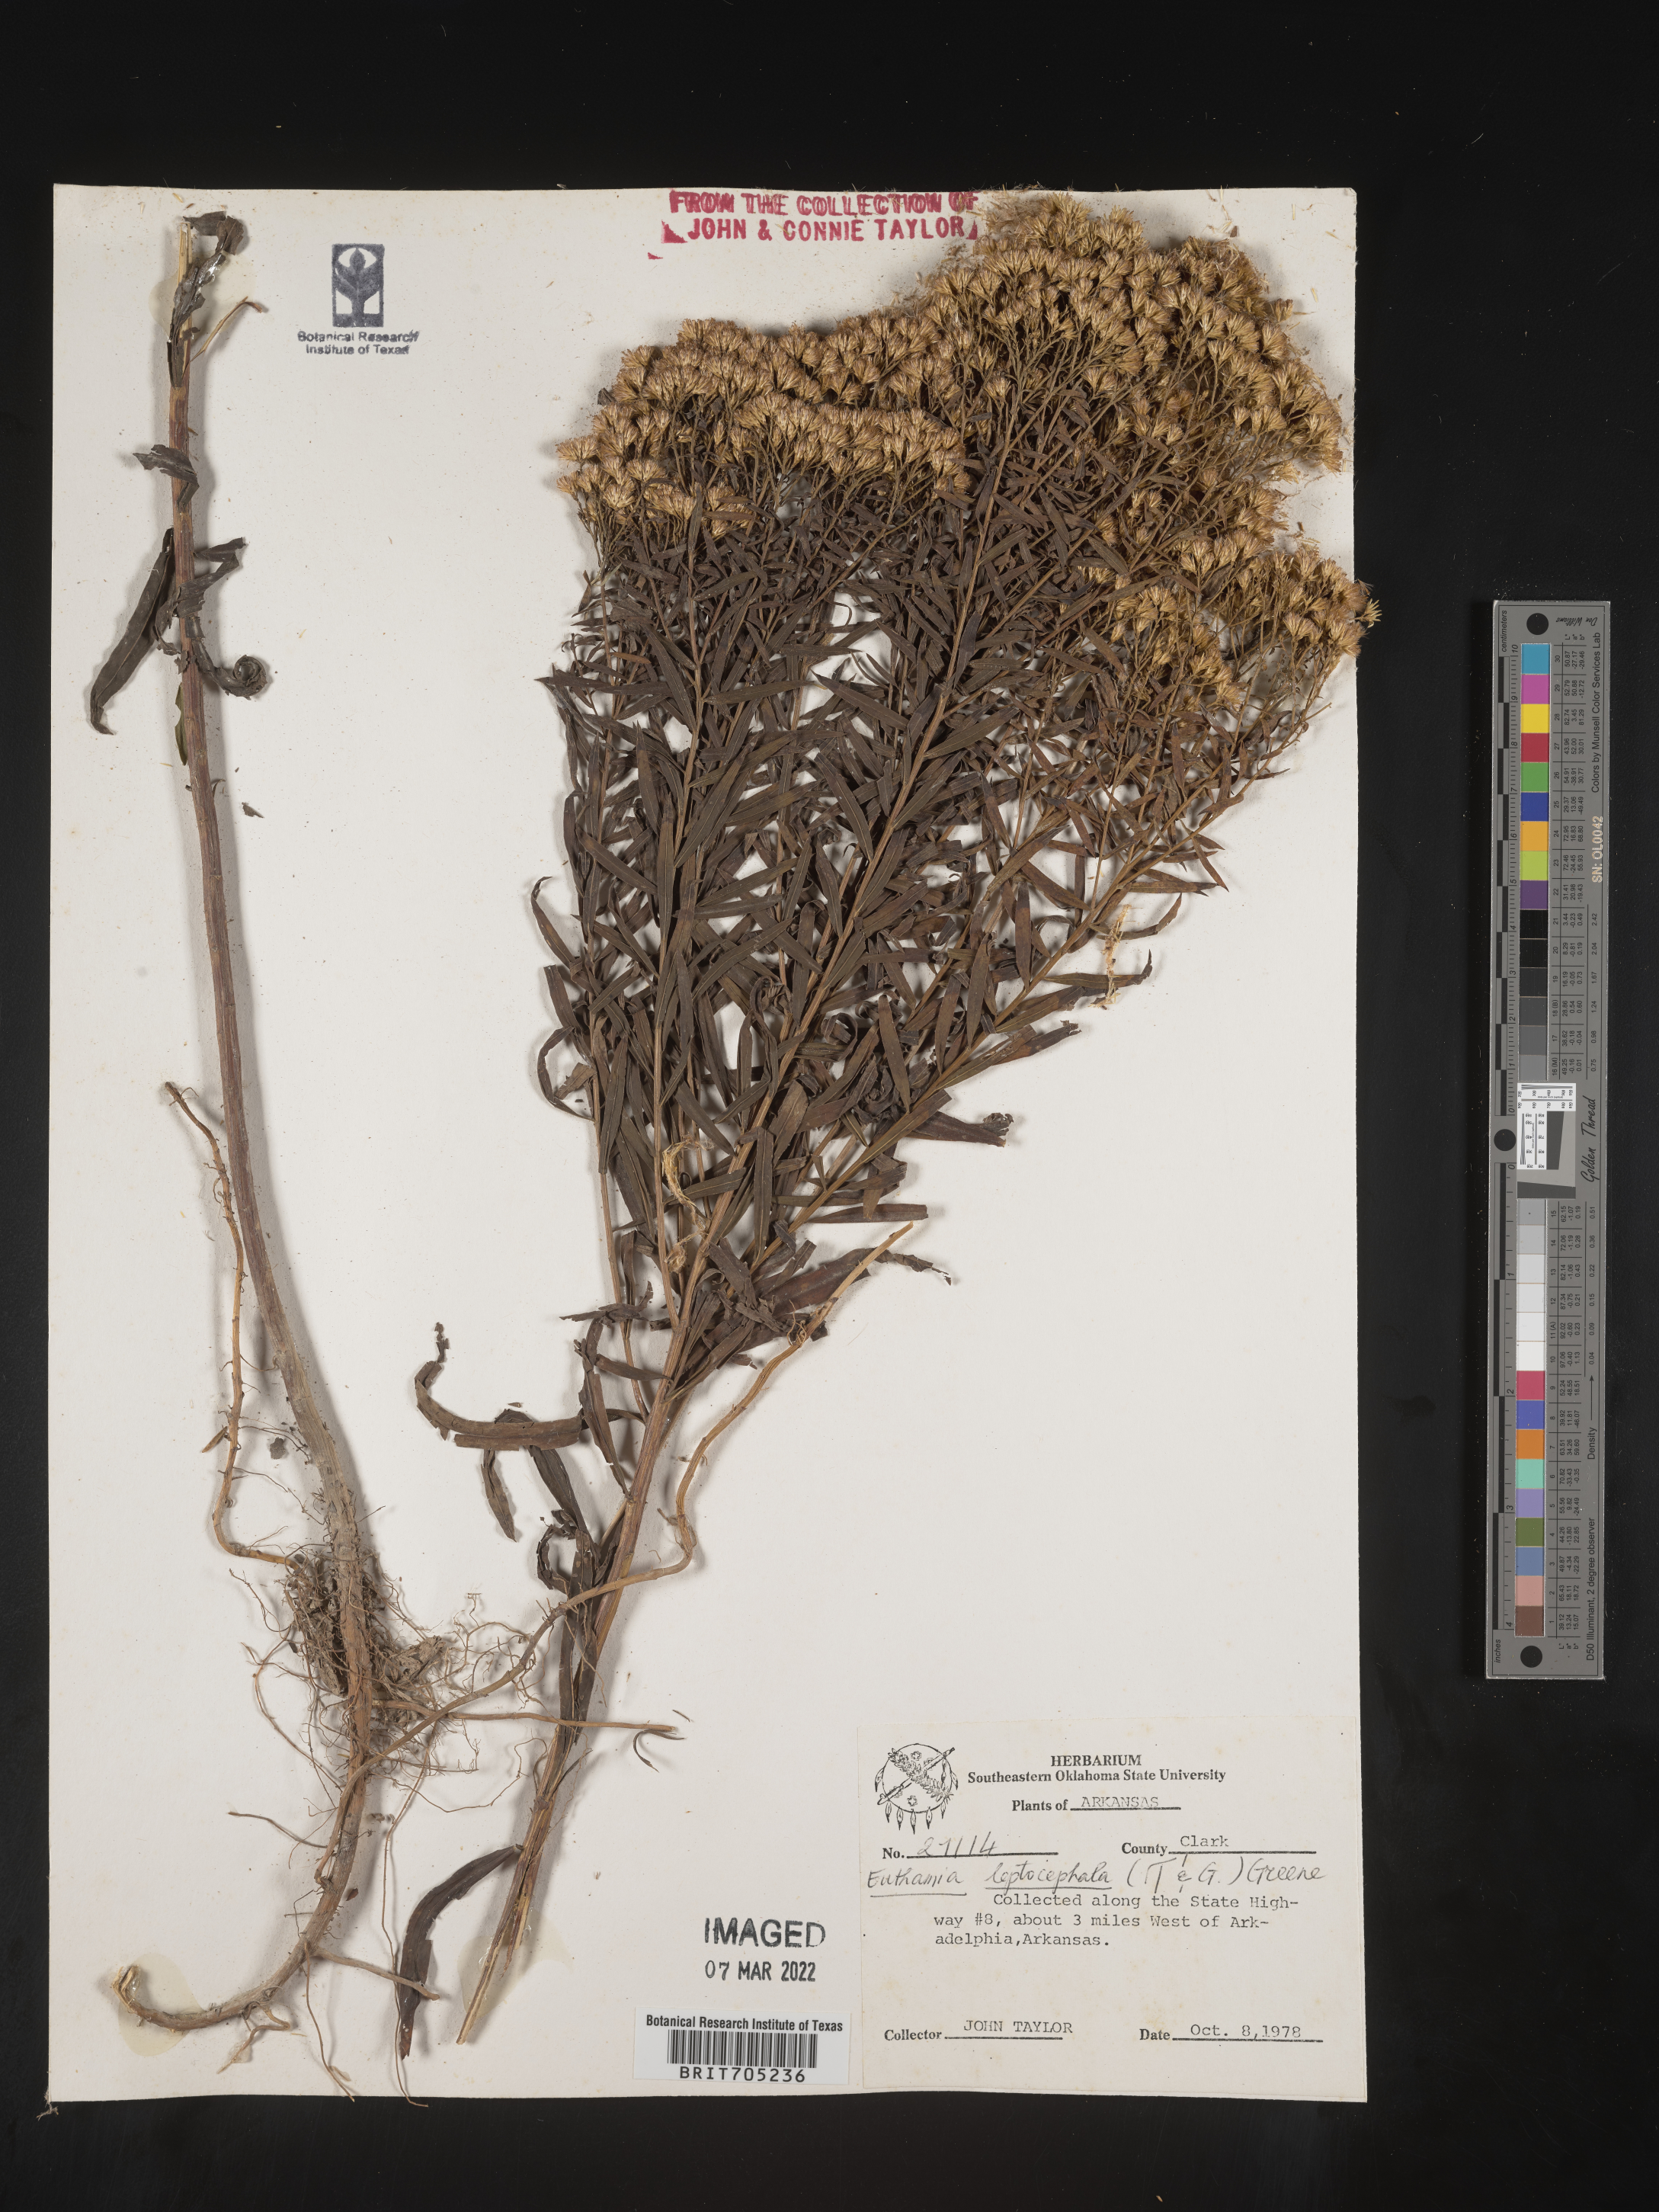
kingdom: Plantae
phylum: Tracheophyta
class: Magnoliopsida
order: Asterales
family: Asteraceae
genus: Euthamia
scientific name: Euthamia leptocephala
